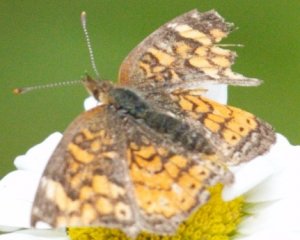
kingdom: Animalia
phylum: Arthropoda
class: Insecta
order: Lepidoptera
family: Nymphalidae
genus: Phyciodes
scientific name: Phyciodes tharos
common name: Northern Crescent
